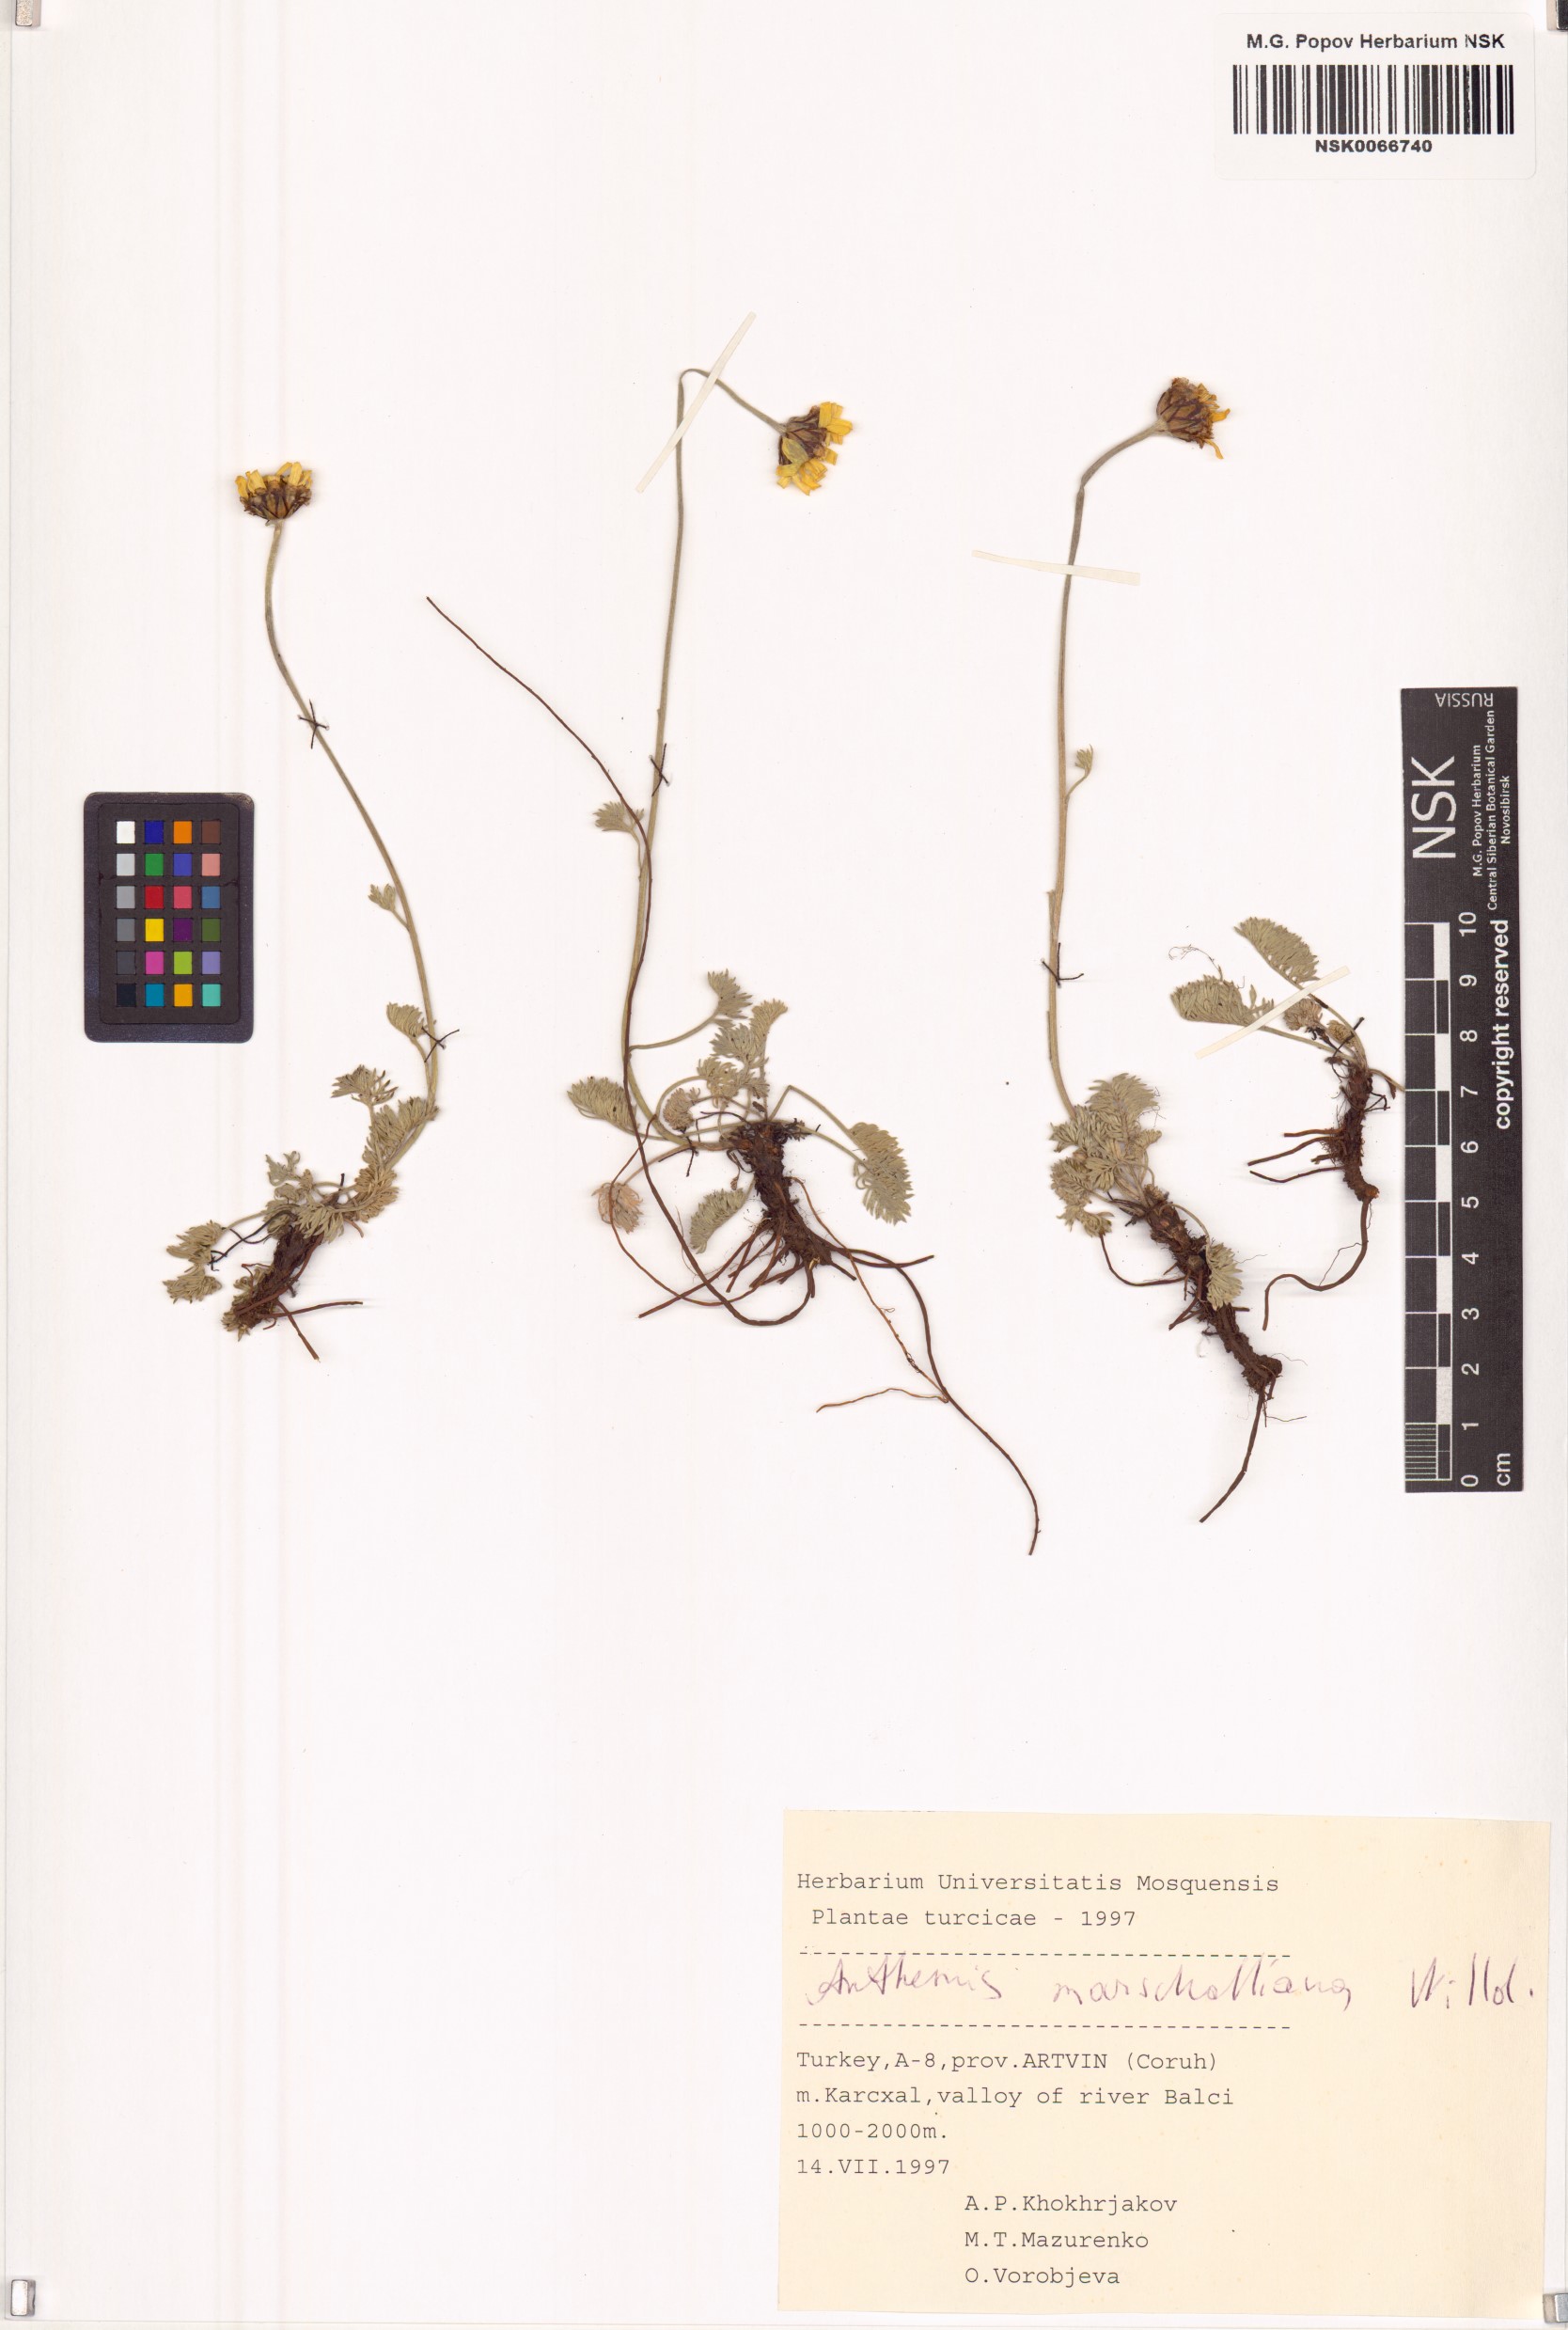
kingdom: Plantae
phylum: Tracheophyta
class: Magnoliopsida
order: Asterales
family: Asteraceae
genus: Archanthemis
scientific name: Archanthemis marschalliana
